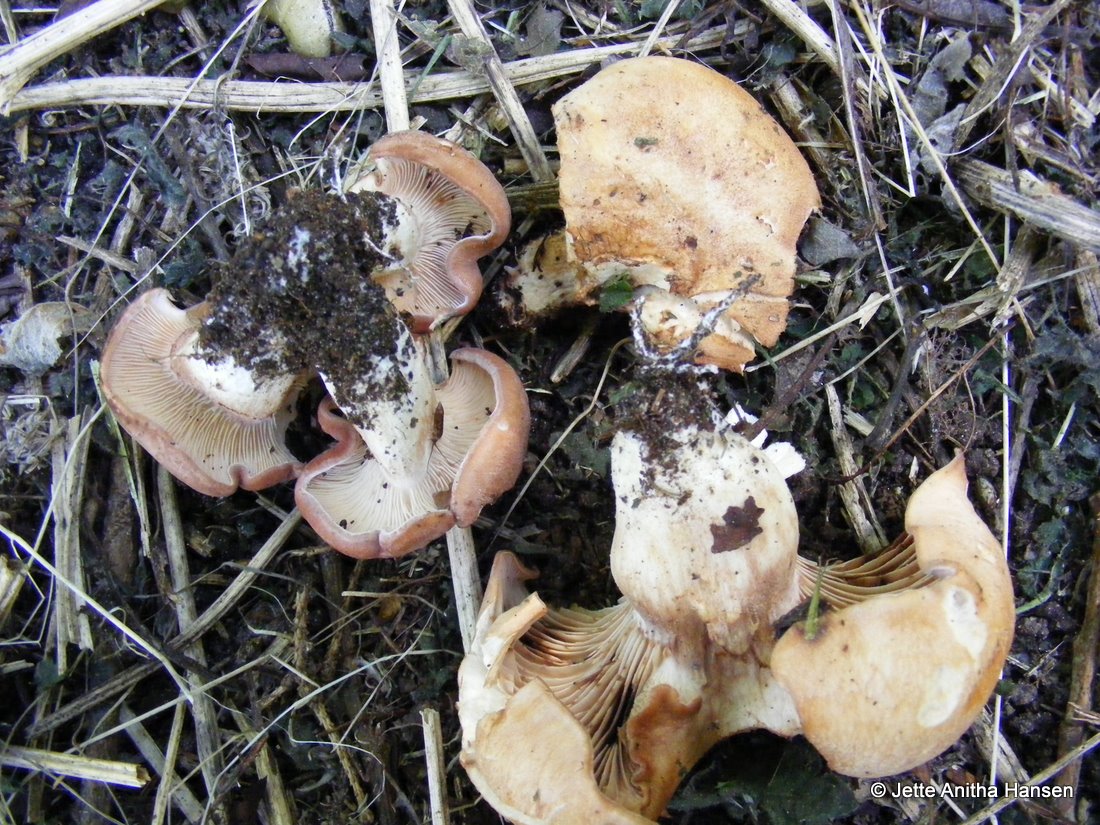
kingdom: Fungi
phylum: Basidiomycota
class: Agaricomycetes
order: Agaricales
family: Entolomataceae
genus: Clitopilus
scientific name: Clitopilus geminus
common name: kødfarvet troldhat
